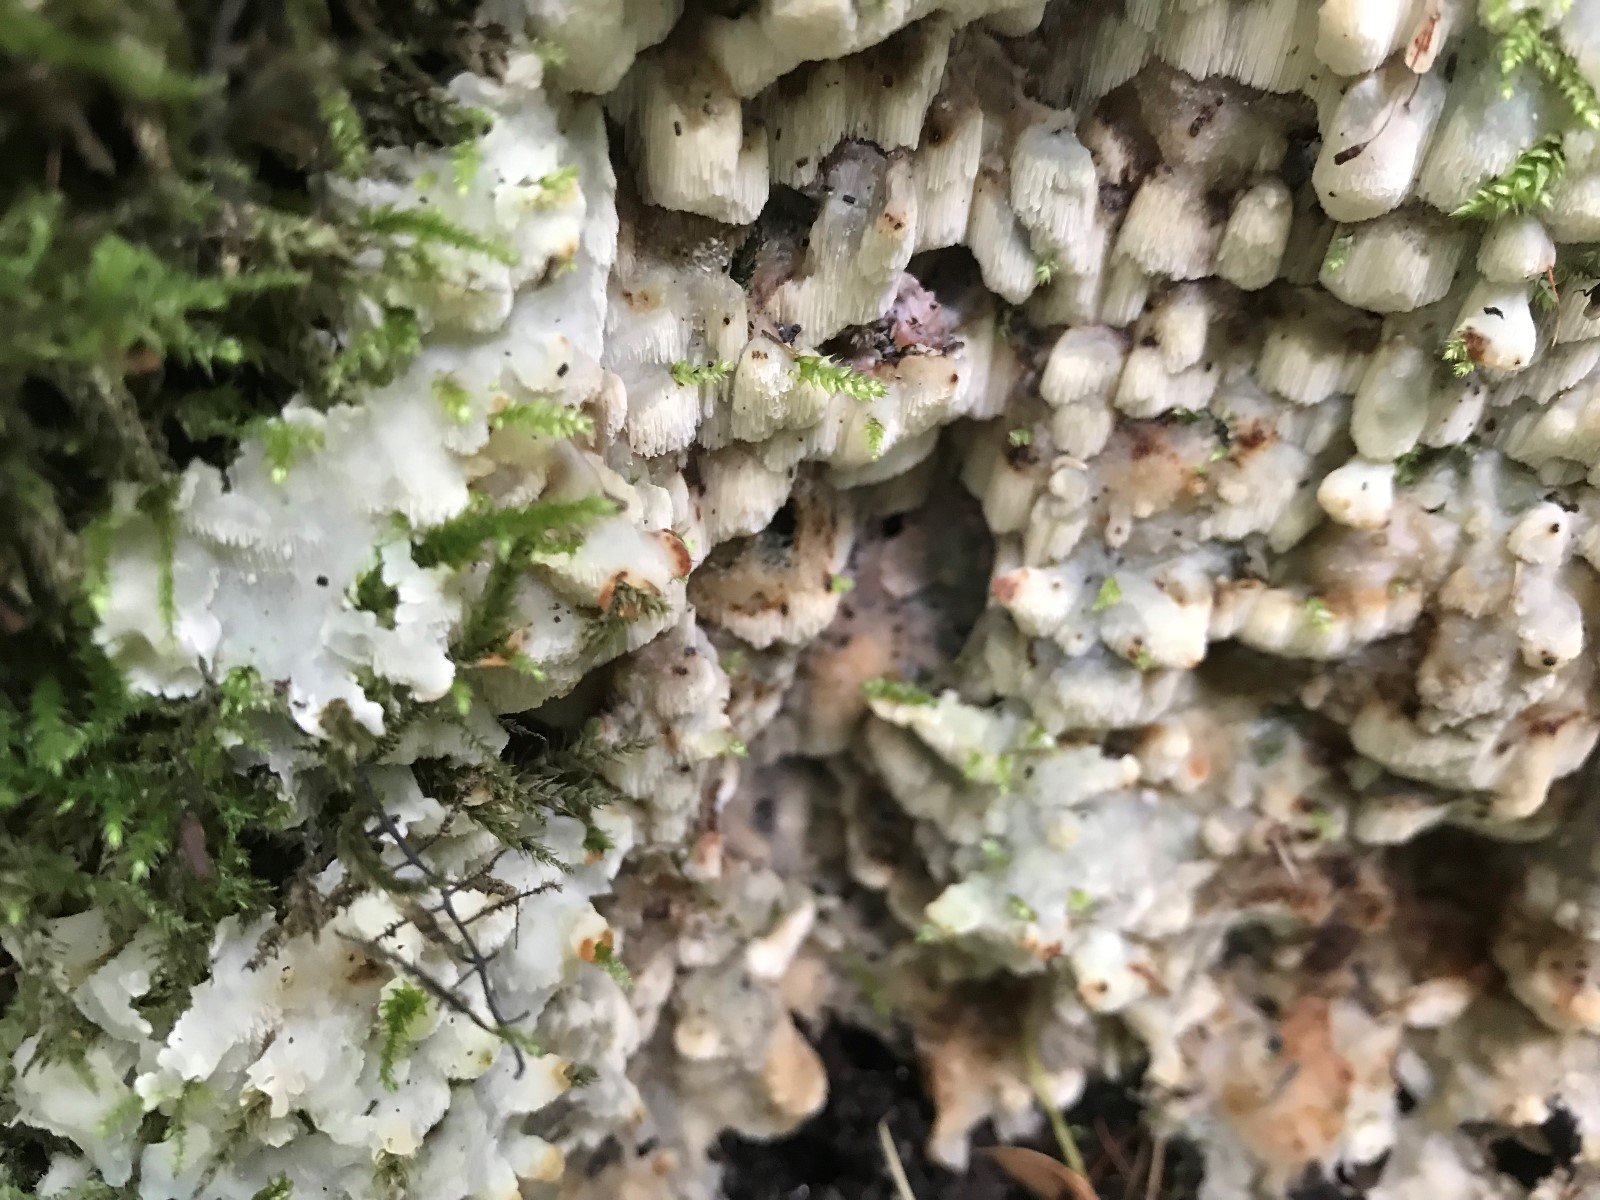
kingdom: Fungi
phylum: Basidiomycota
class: Agaricomycetes
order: Polyporales
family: Meruliaceae
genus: Physisporinus
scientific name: Physisporinus vitreus
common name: mastesvamp
